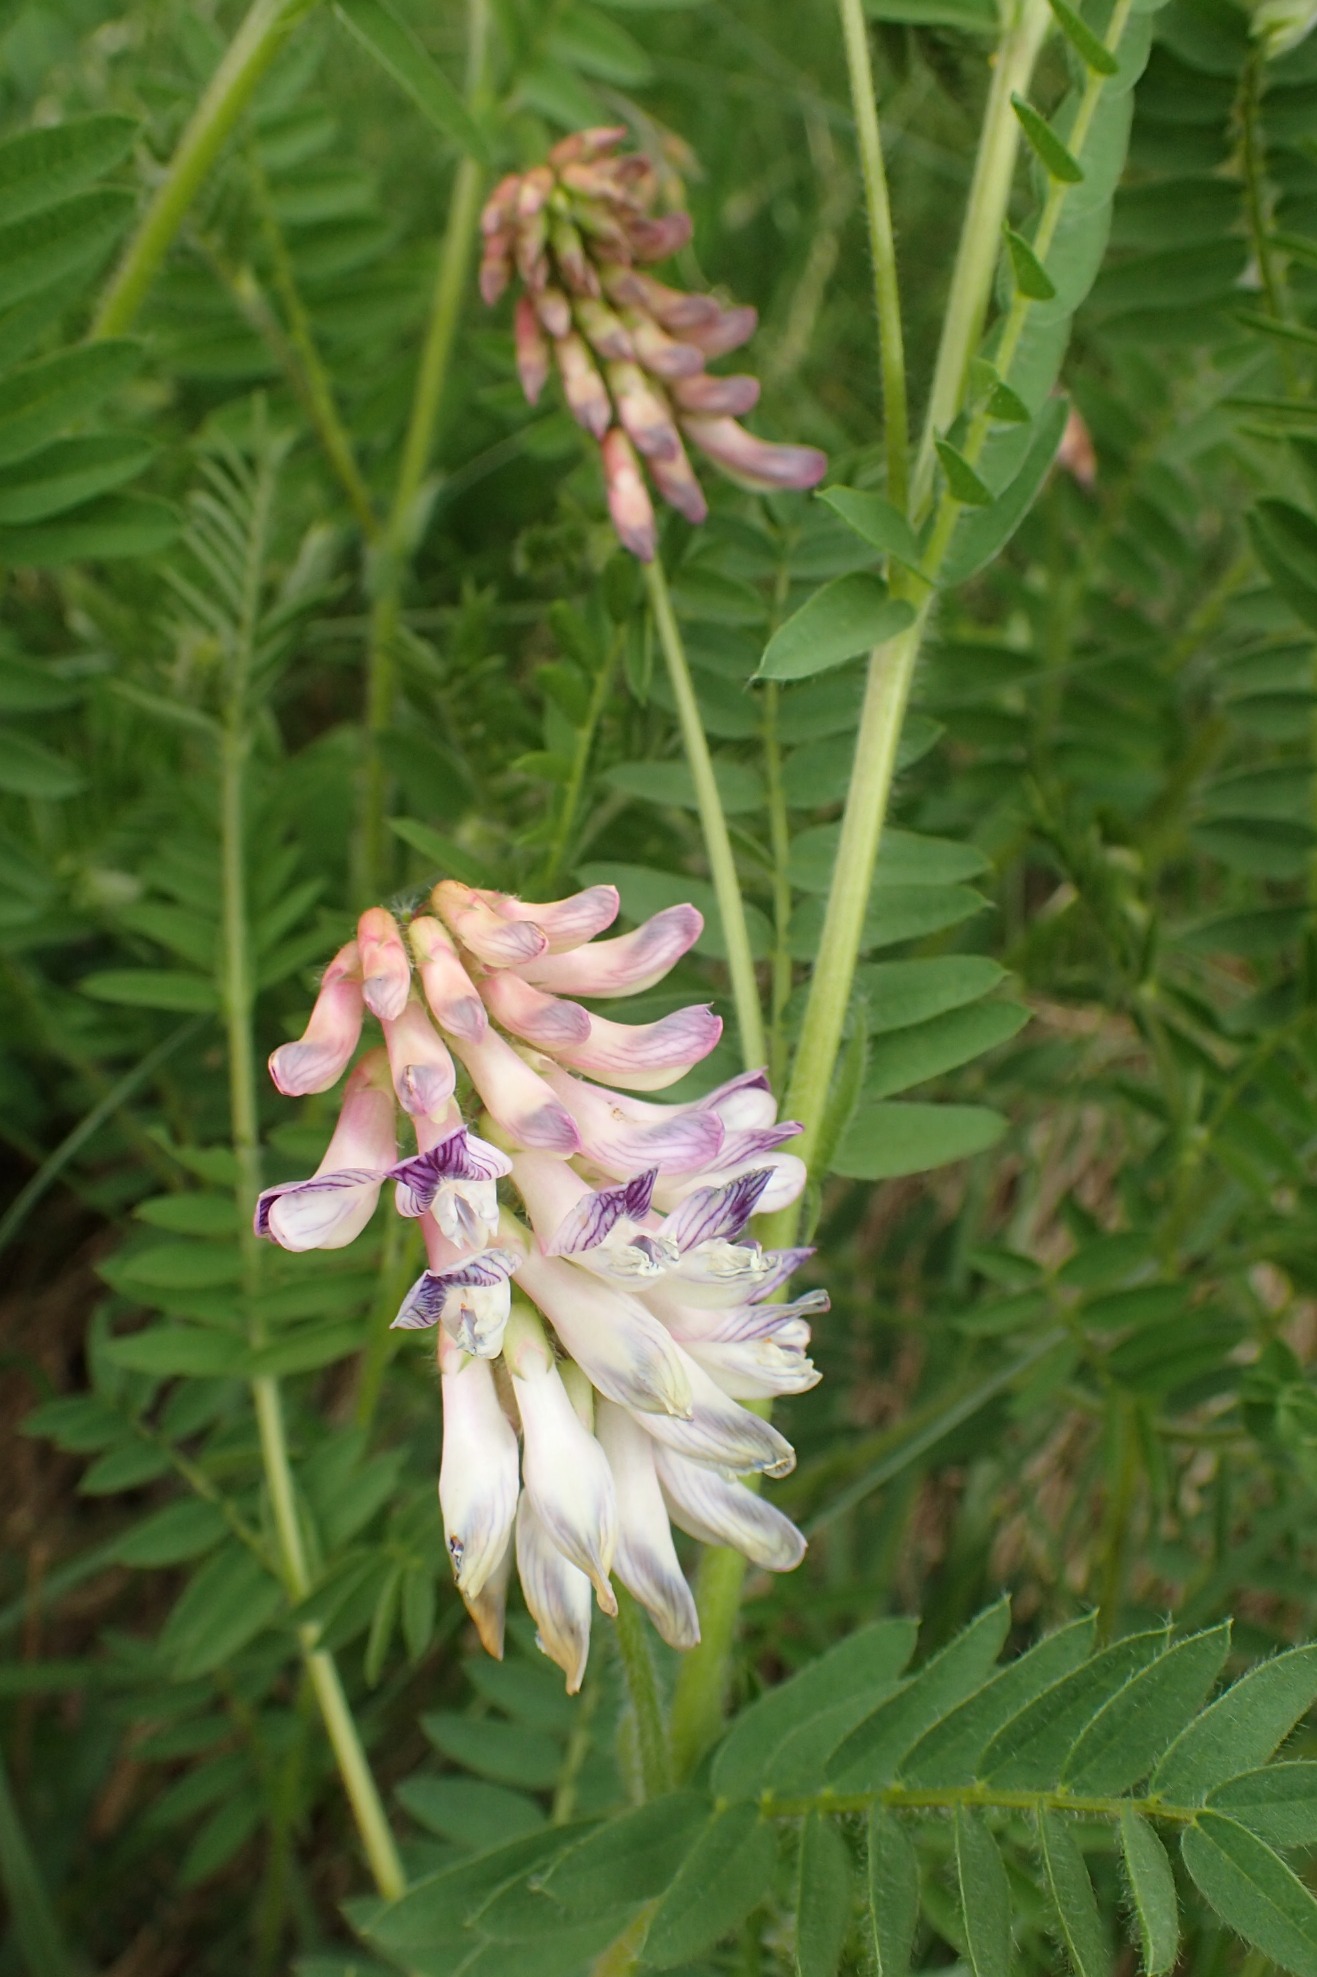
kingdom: Plantae
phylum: Tracheophyta
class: Magnoliopsida
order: Fabales
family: Fabaceae
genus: Vicia
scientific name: Vicia orobus
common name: Lyng-vikke
